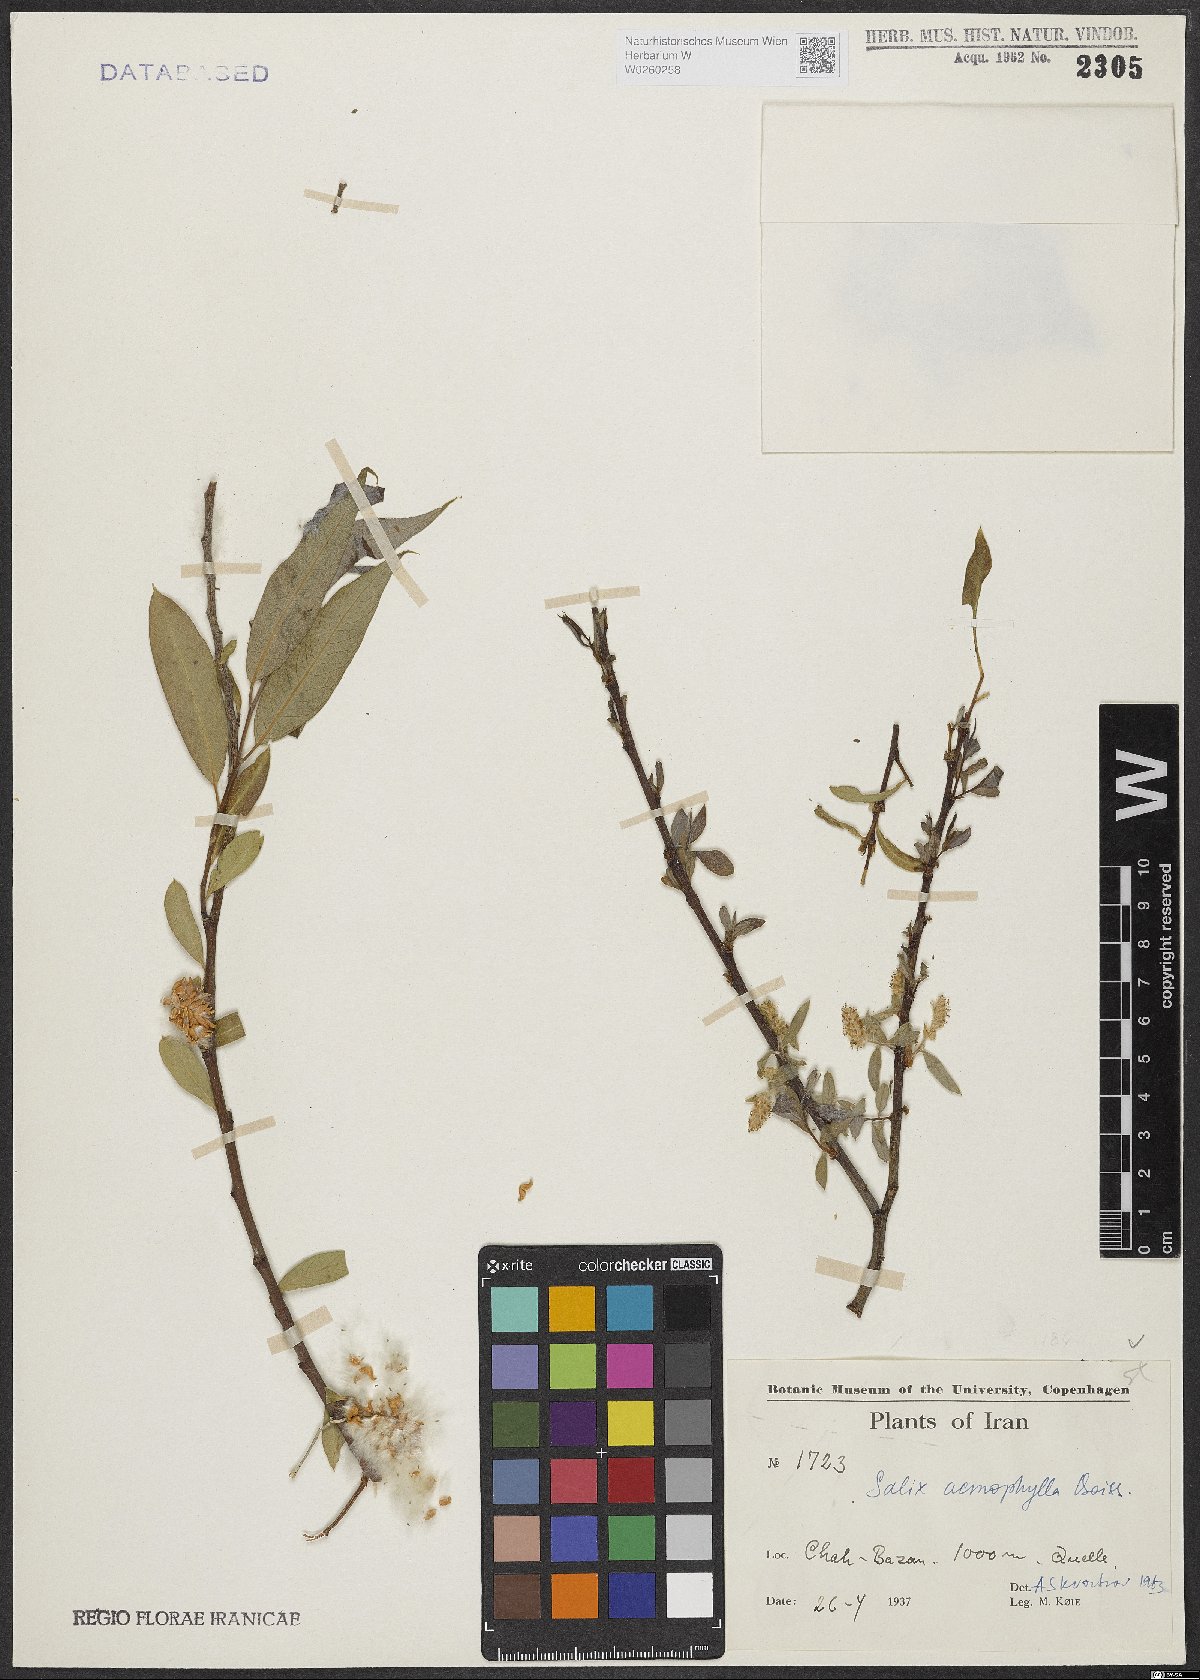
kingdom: Plantae
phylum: Tracheophyta
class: Magnoliopsida
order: Malpighiales
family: Salicaceae
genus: Salix
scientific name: Salix acmophylla
